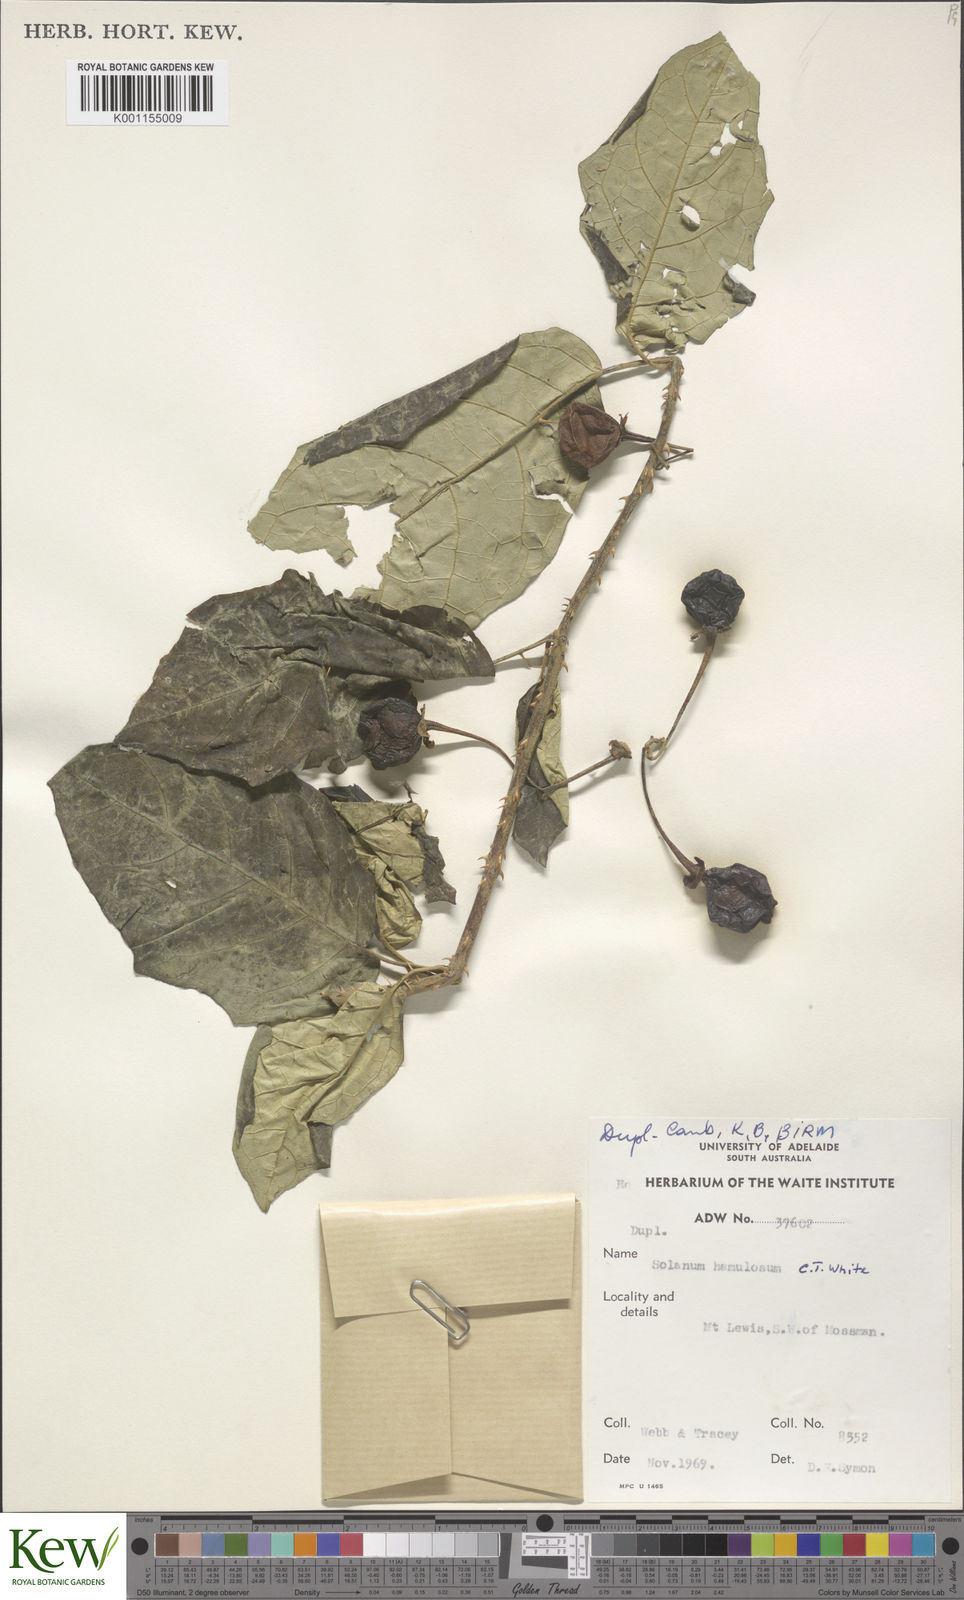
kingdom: Plantae
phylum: Tracheophyta
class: Magnoliopsida
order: Solanales
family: Solanaceae
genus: Solanum
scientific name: Solanum hamulosum
